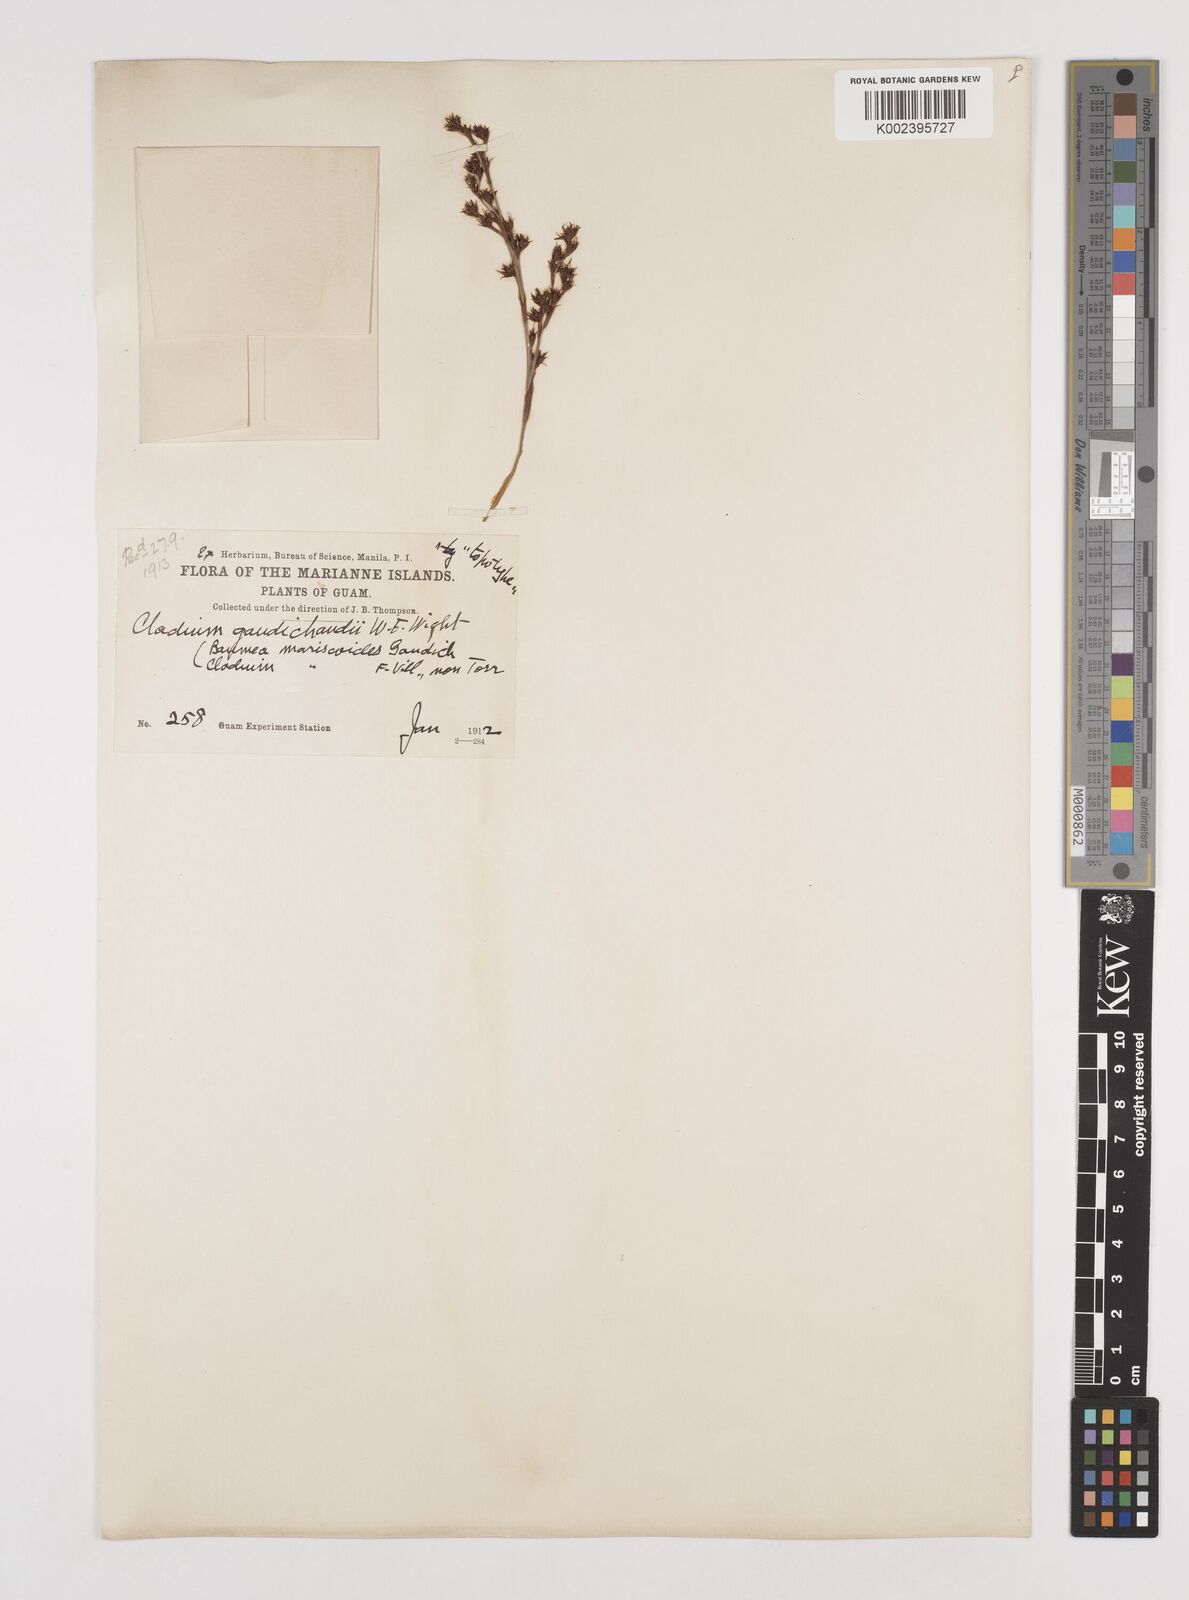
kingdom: Plantae
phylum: Tracheophyta
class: Liliopsida
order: Poales
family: Cyperaceae
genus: Machaerina
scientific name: Machaerina mariscoides
